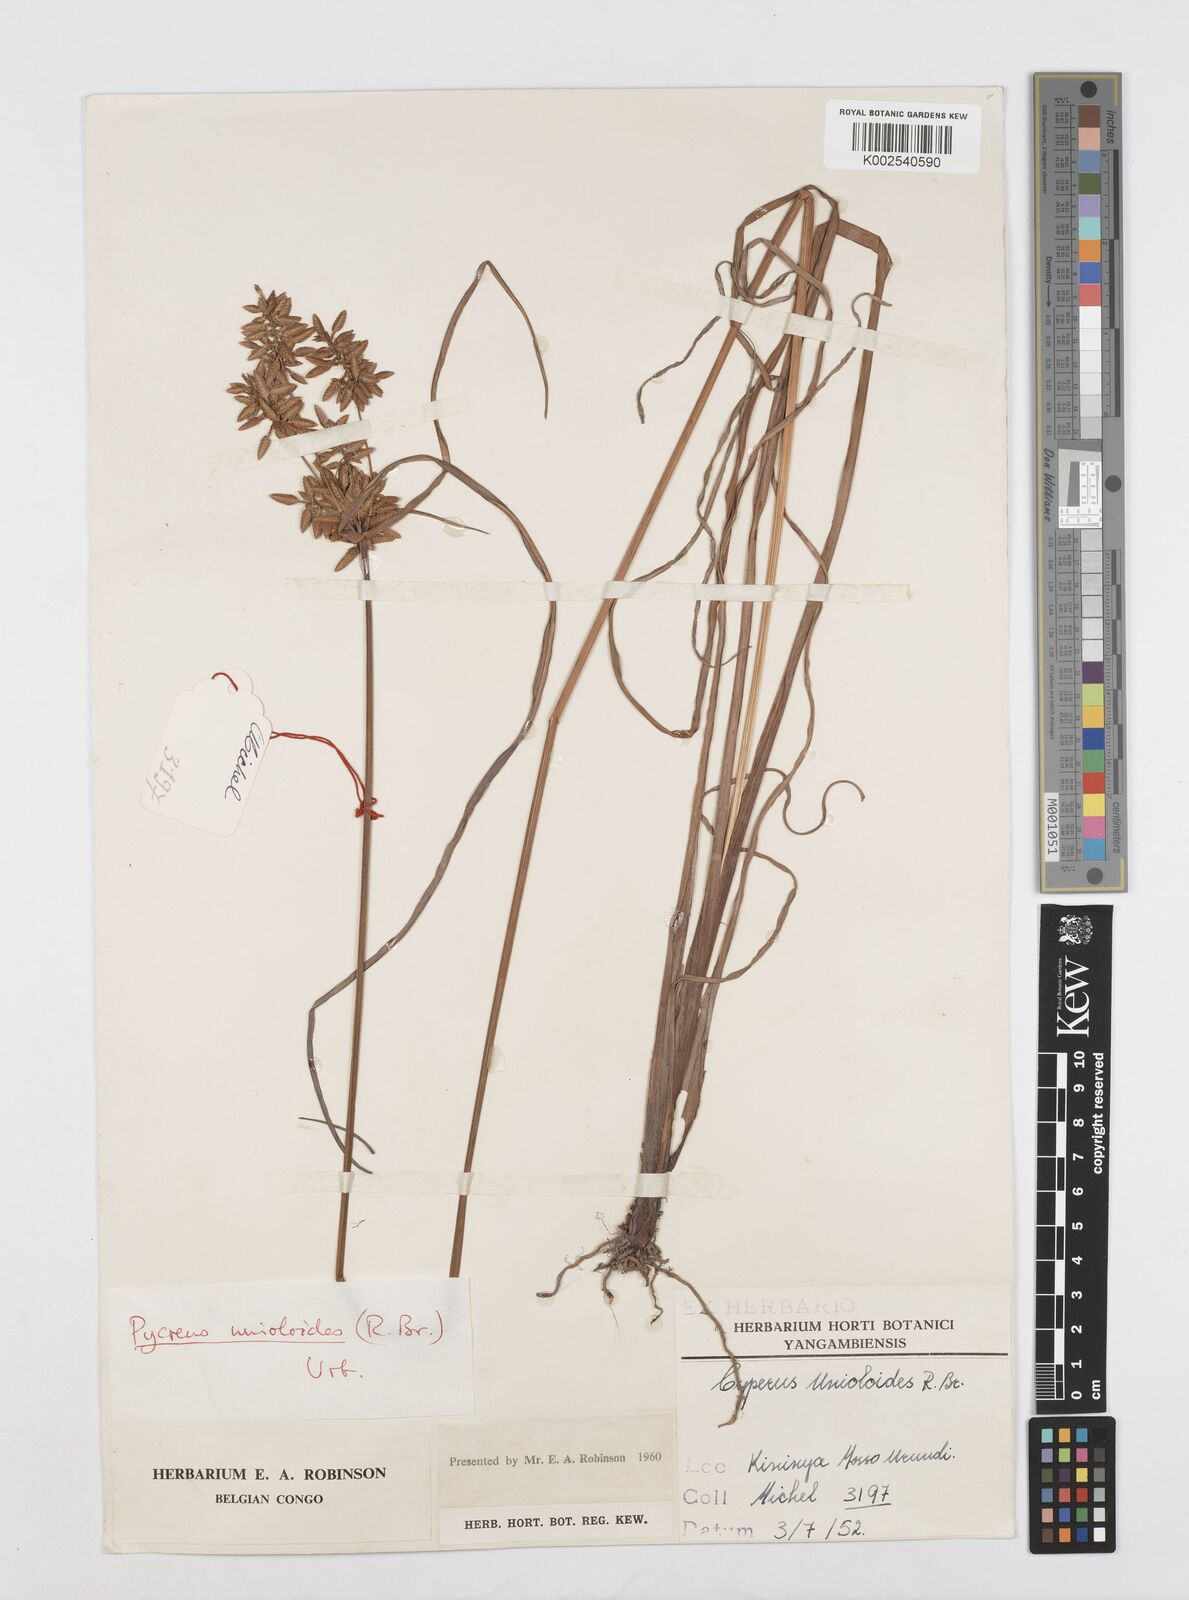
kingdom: Plantae
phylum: Tracheophyta
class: Liliopsida
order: Poales
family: Cyperaceae
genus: Cyperus
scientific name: Cyperus unioloides
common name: Uniola flatsedge
